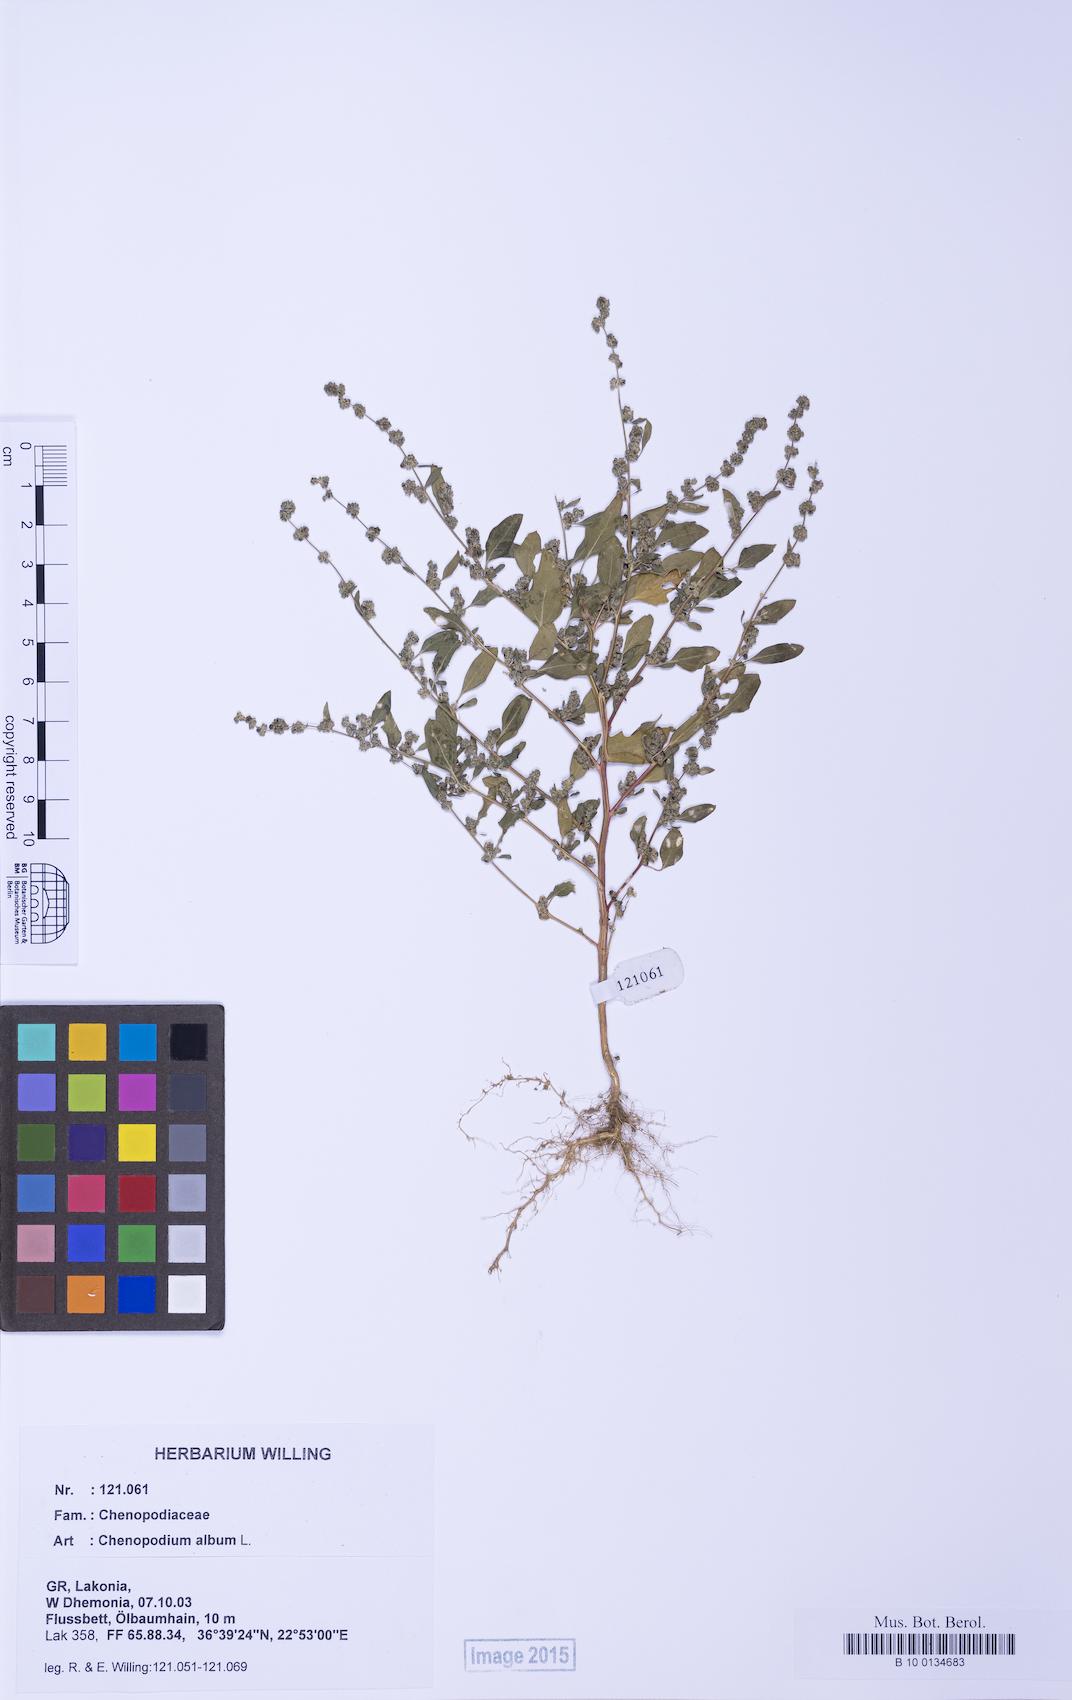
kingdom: Plantae
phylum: Tracheophyta
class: Magnoliopsida
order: Caryophyllales
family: Amaranthaceae
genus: Chenopodium
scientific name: Chenopodium striatiforme
